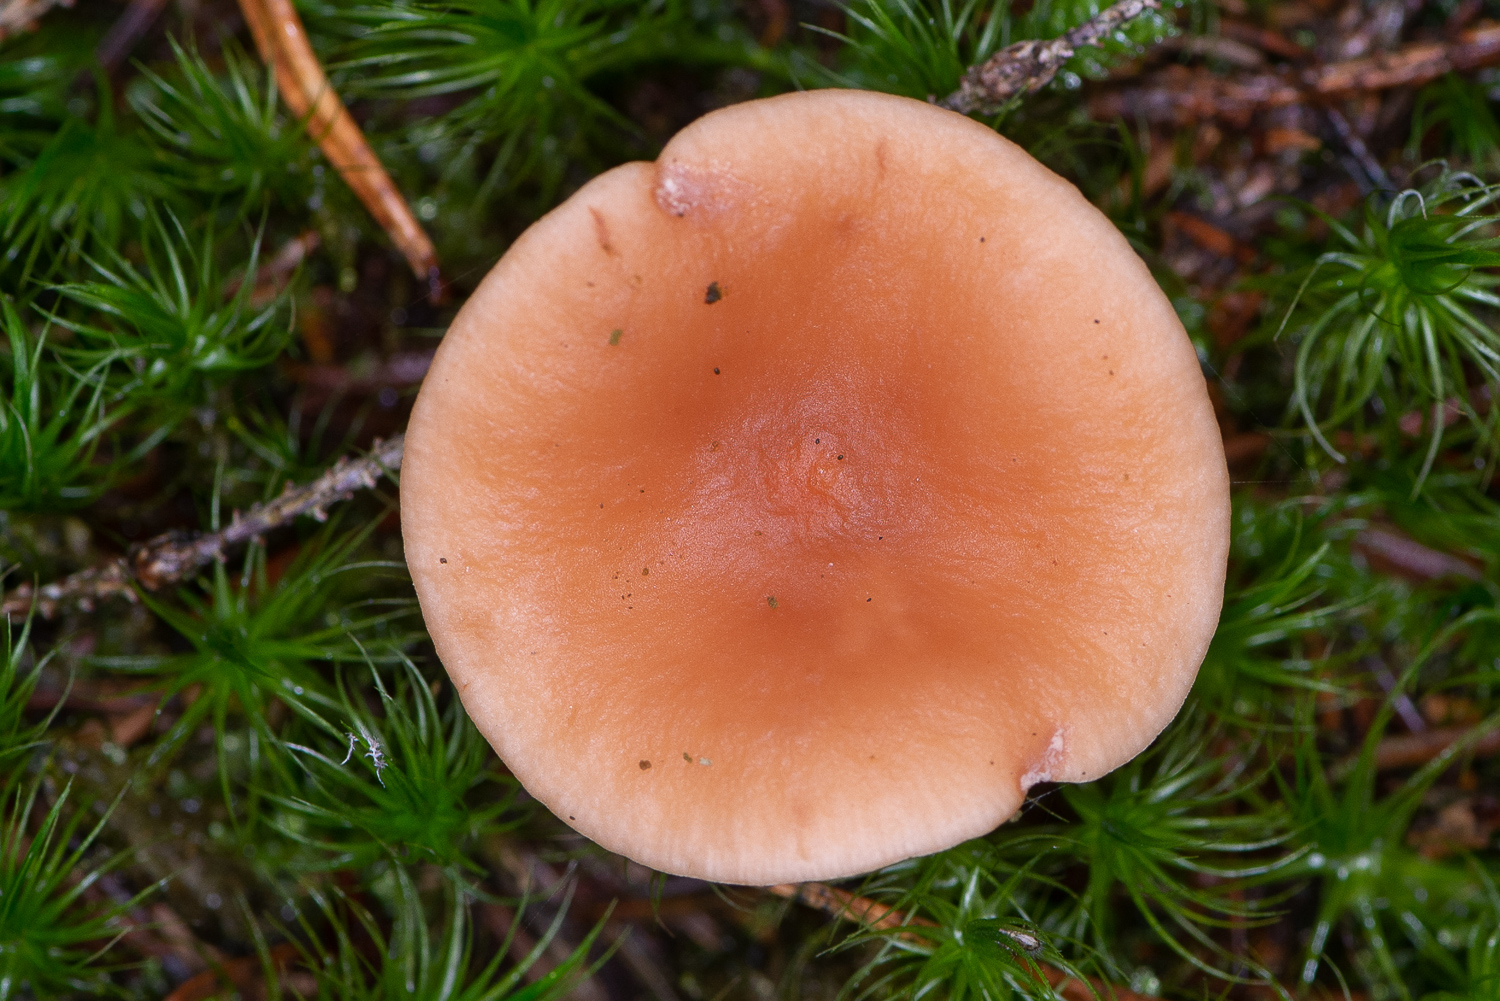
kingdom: Fungi
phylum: Basidiomycota
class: Agaricomycetes
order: Russulales
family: Russulaceae
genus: Lactarius
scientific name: Lactarius tabidus
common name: rynket mælkehat
